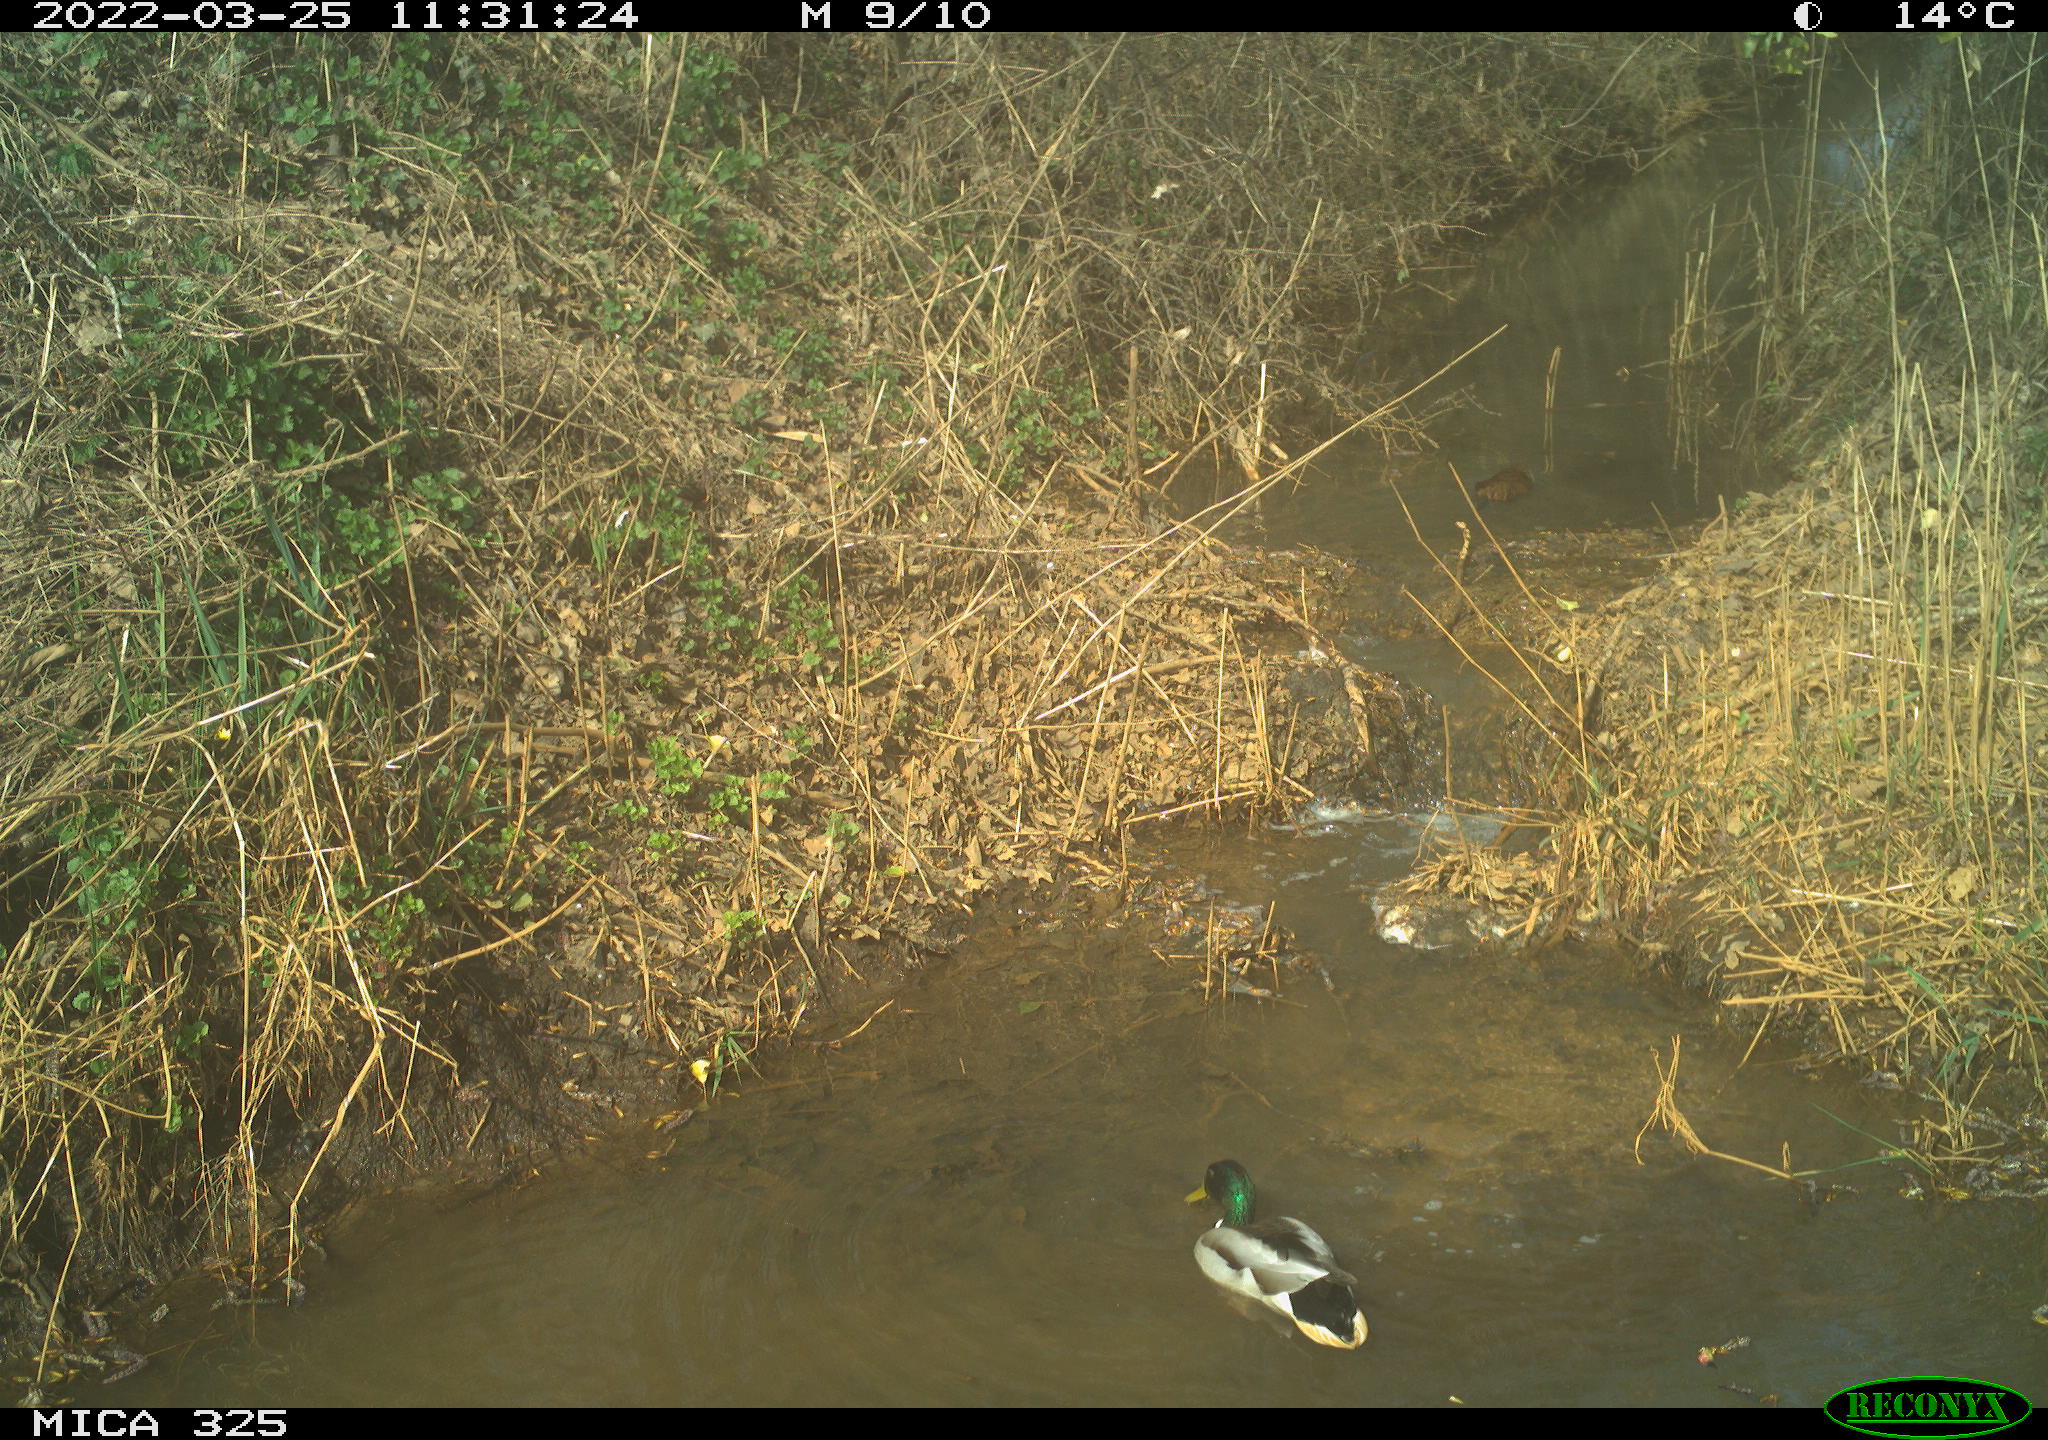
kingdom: Animalia
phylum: Chordata
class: Aves
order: Anseriformes
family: Anatidae
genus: Anas
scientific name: Anas platyrhynchos
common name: Mallard
